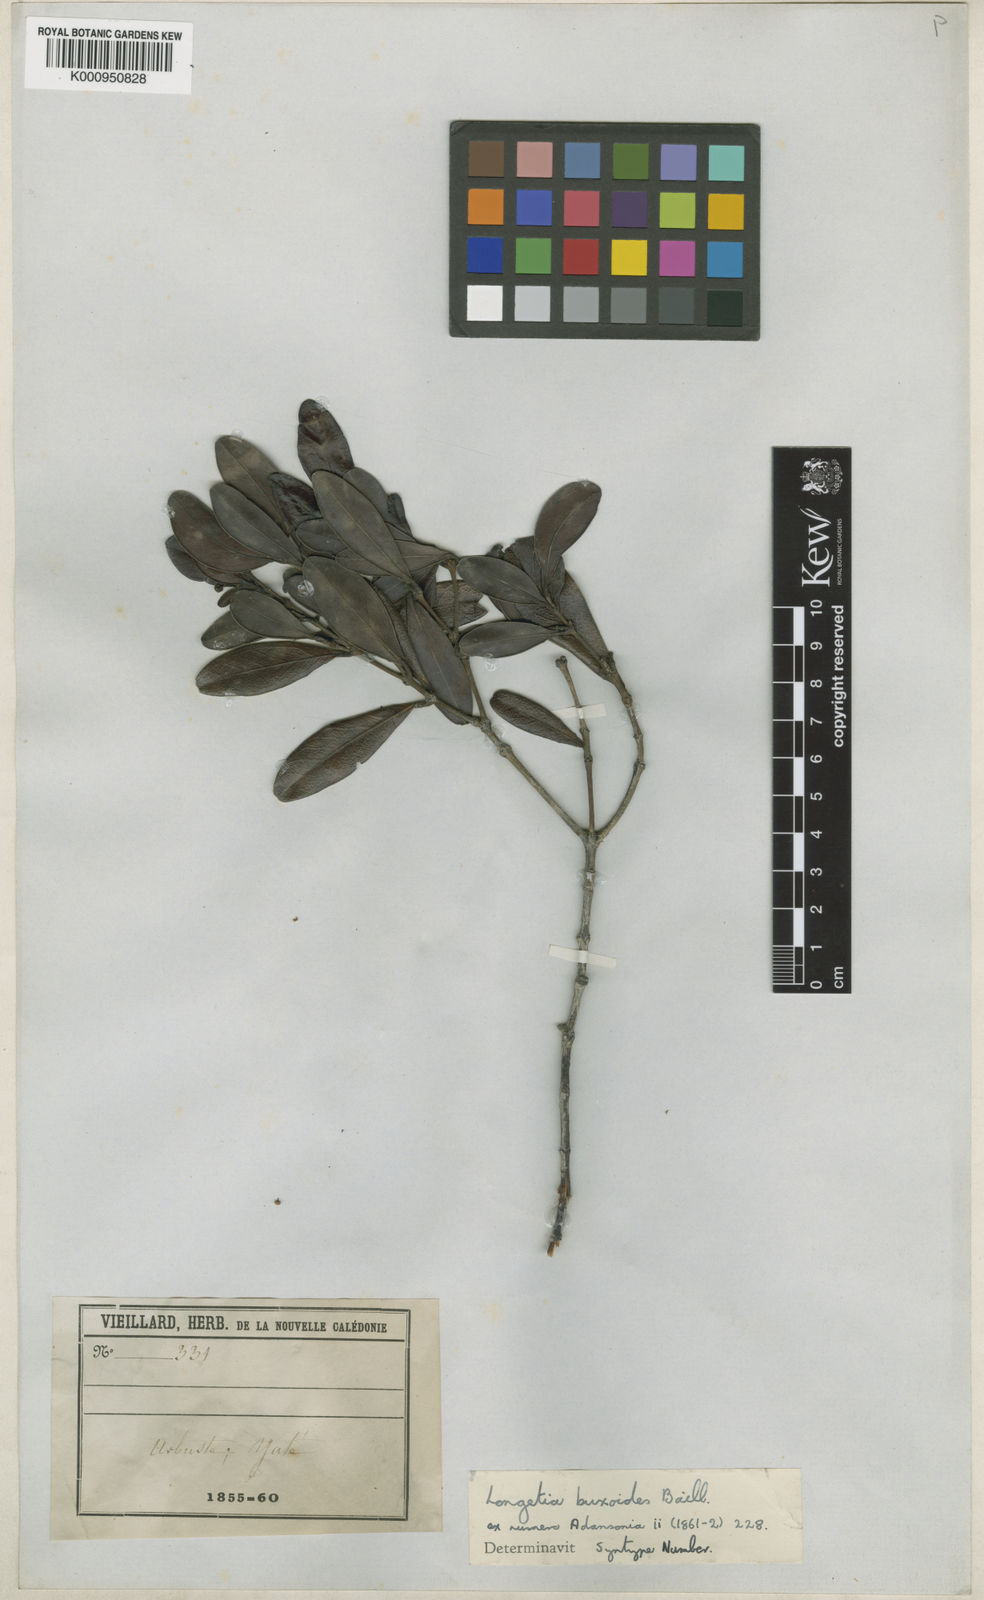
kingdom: Plantae
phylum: Tracheophyta
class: Magnoliopsida
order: Malpighiales
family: Picrodendraceae
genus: Longetia
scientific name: Longetia buxoides
